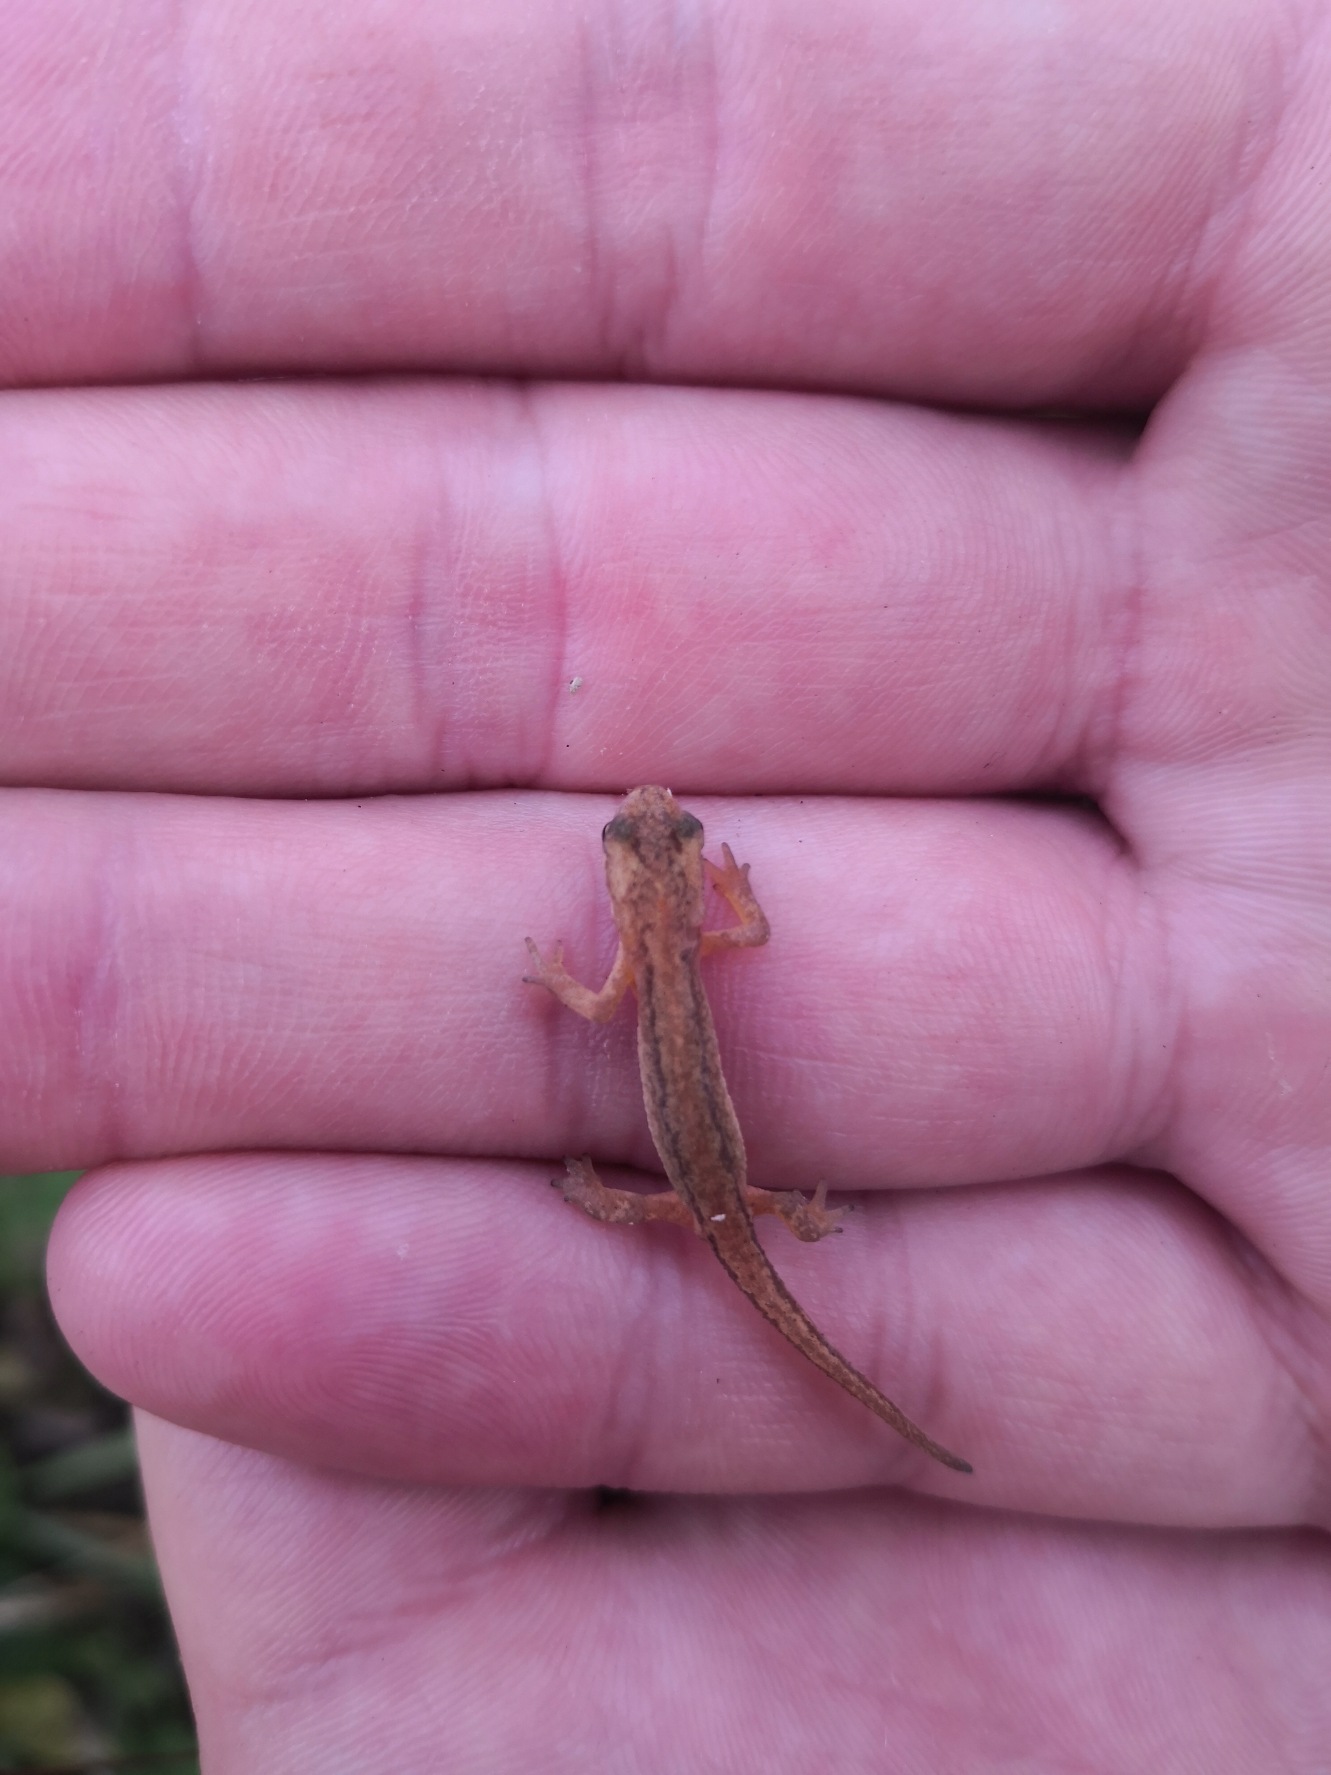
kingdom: Animalia
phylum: Chordata
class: Amphibia
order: Caudata
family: Salamandridae
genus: Lissotriton
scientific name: Lissotriton vulgaris
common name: Lille vandsalamander
